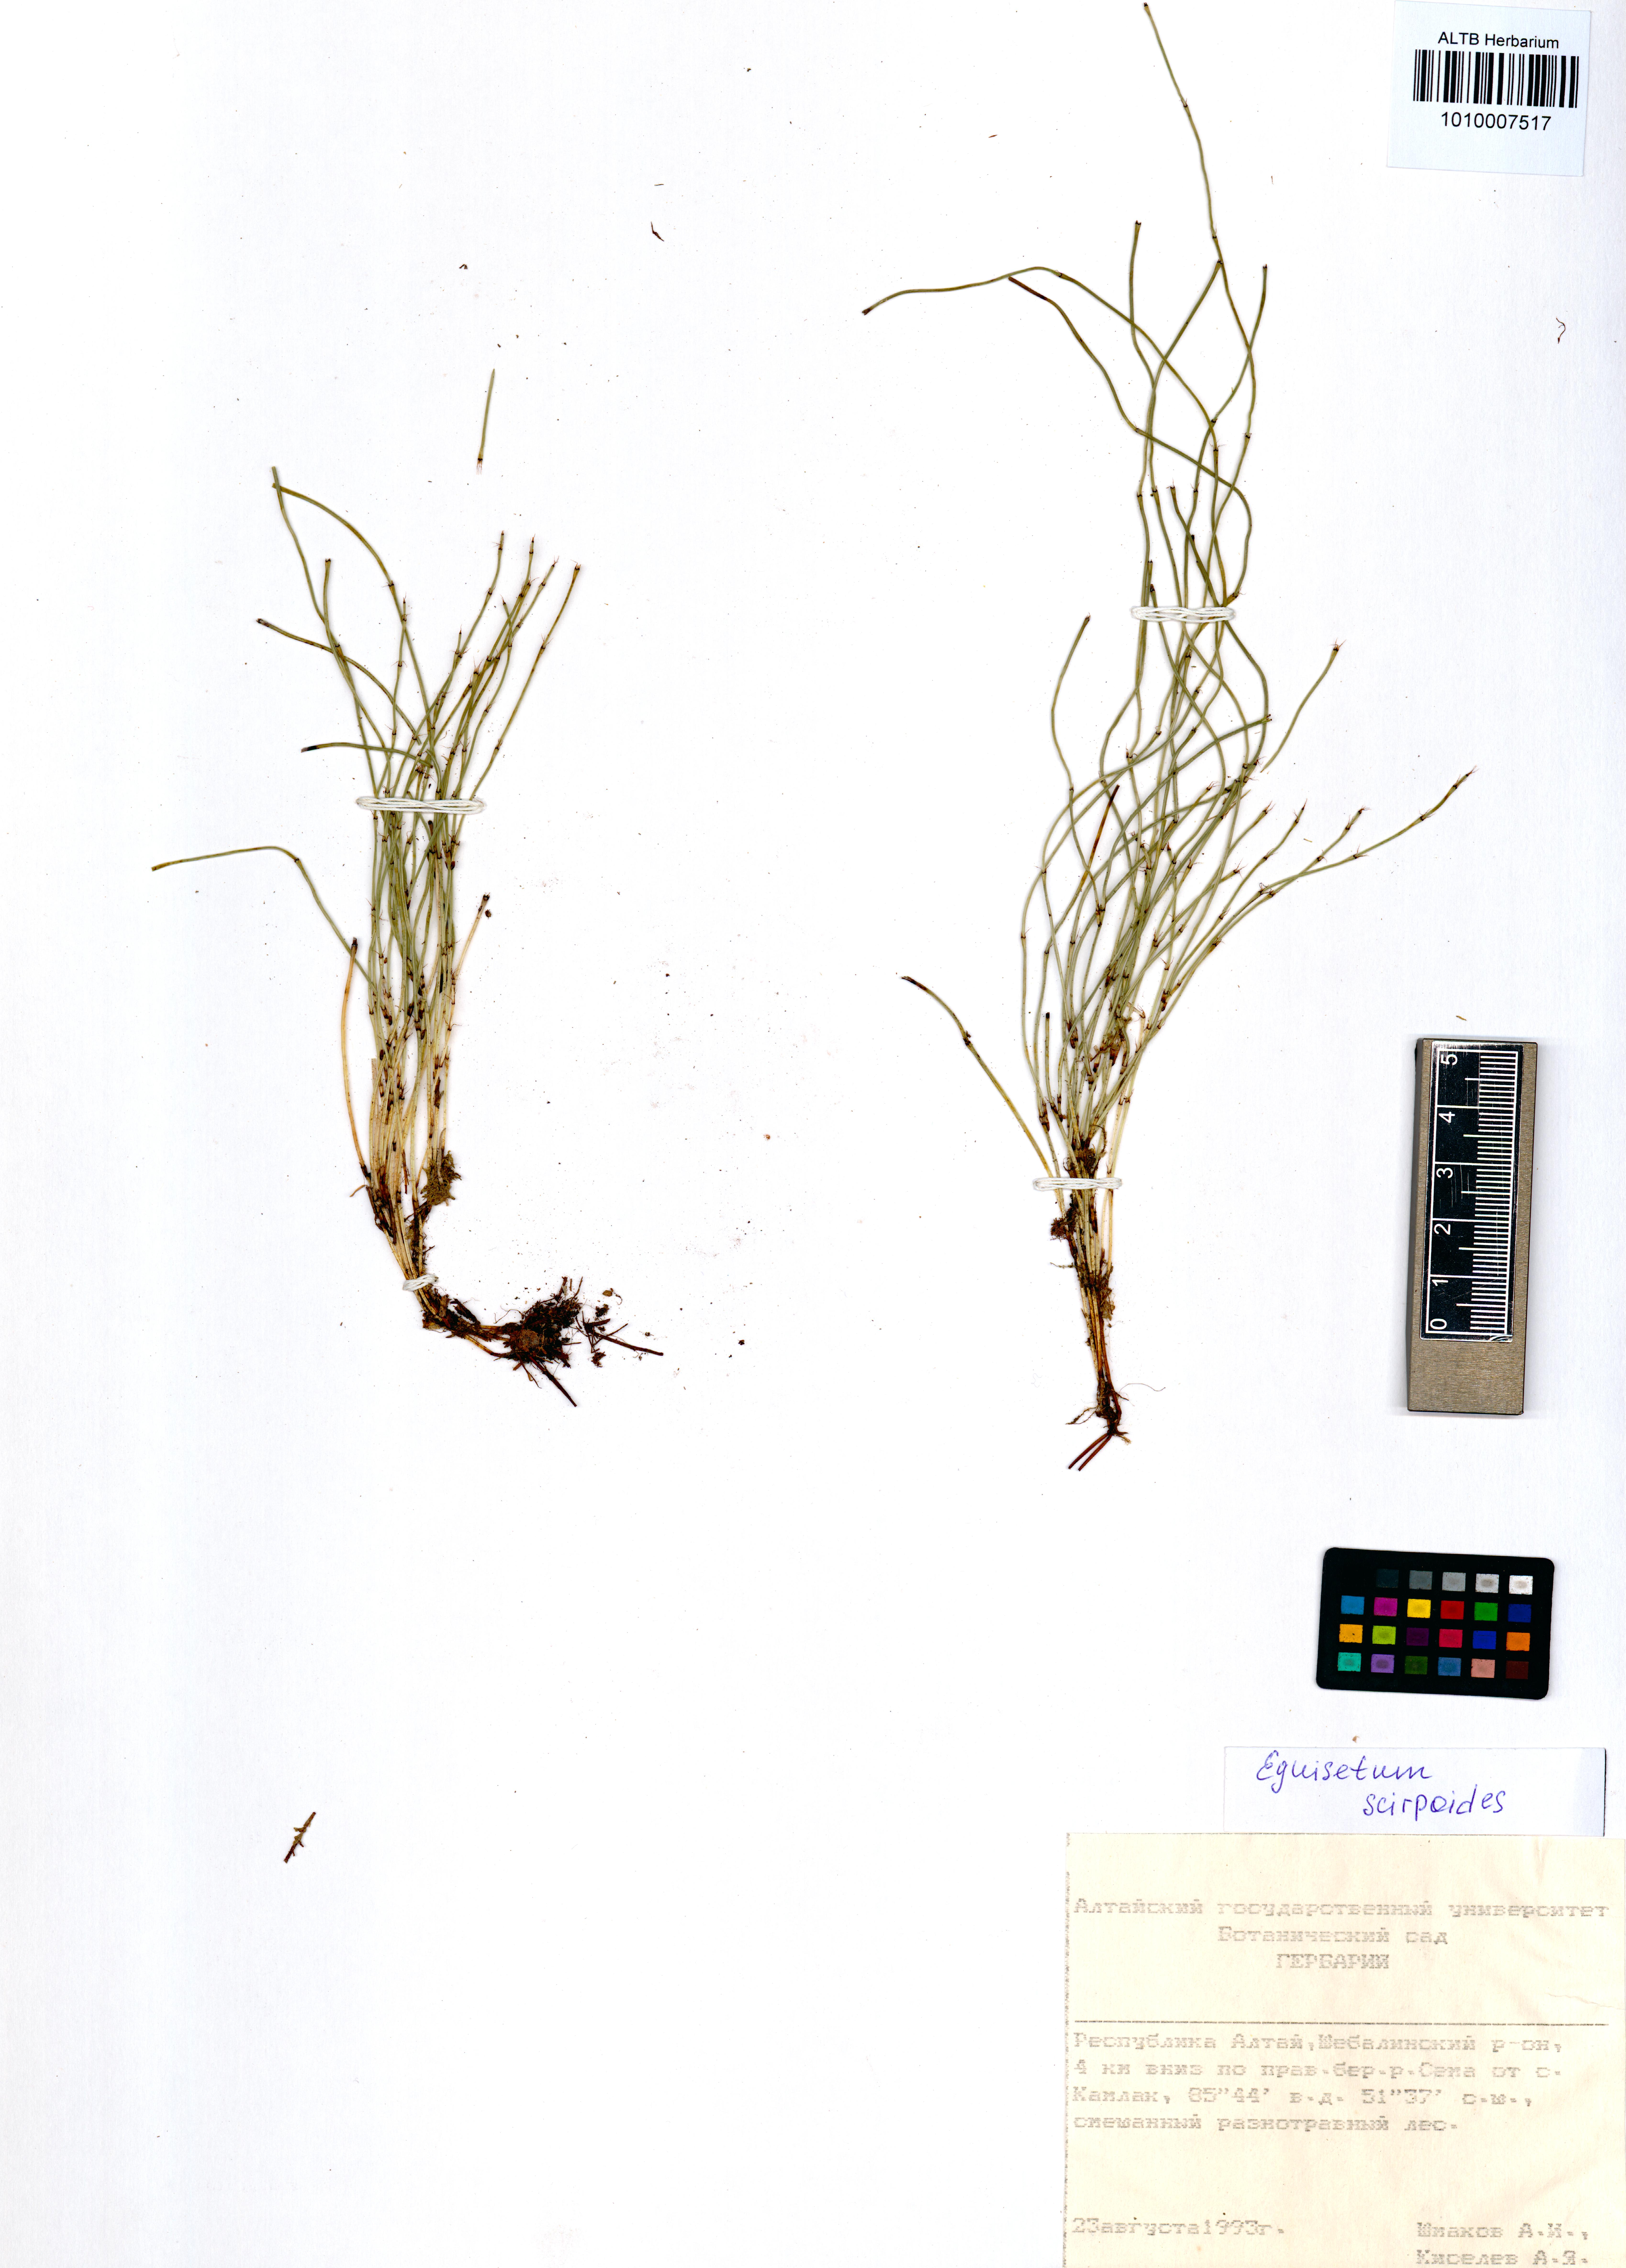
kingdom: Plantae
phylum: Tracheophyta
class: Polypodiopsida
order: Equisetales
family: Equisetaceae
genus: Equisetum
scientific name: Equisetum scirpoides
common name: Delicate horsetail
